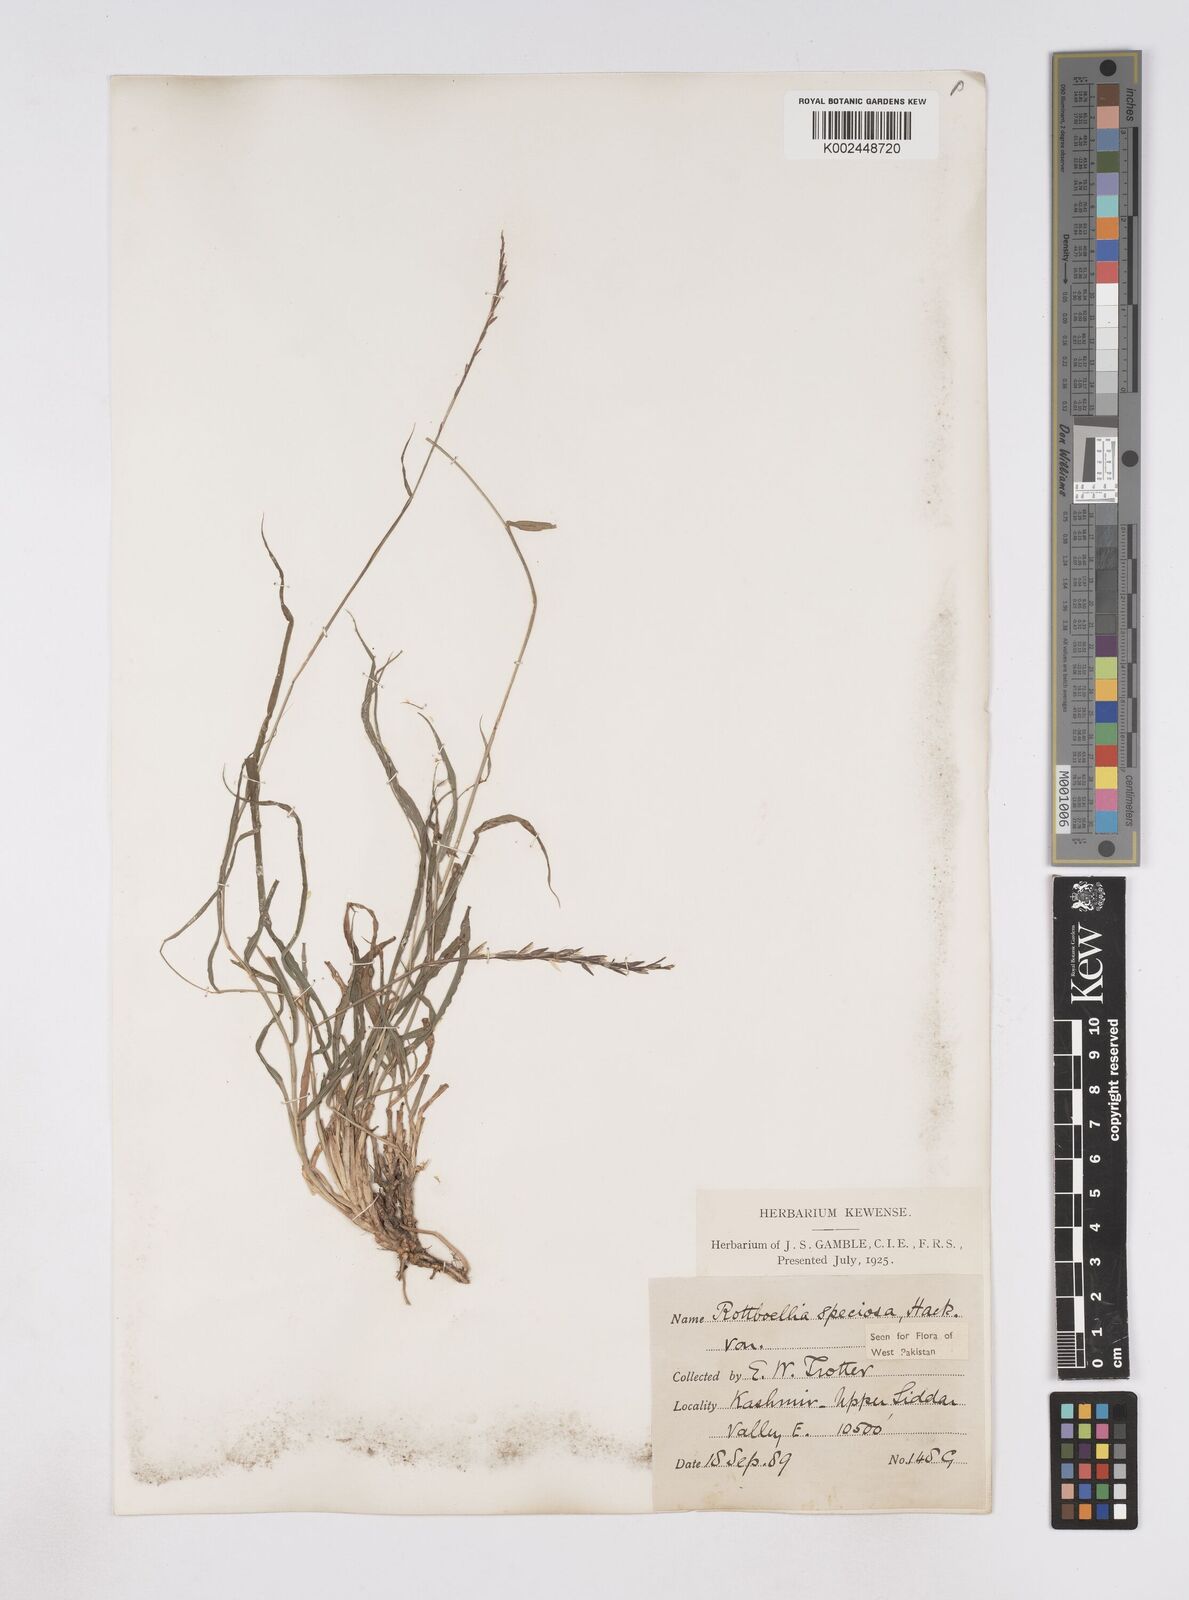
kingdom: Plantae
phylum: Tracheophyta
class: Liliopsida
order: Poales
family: Poaceae
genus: Phacelurus
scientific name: Phacelurus speciosus
